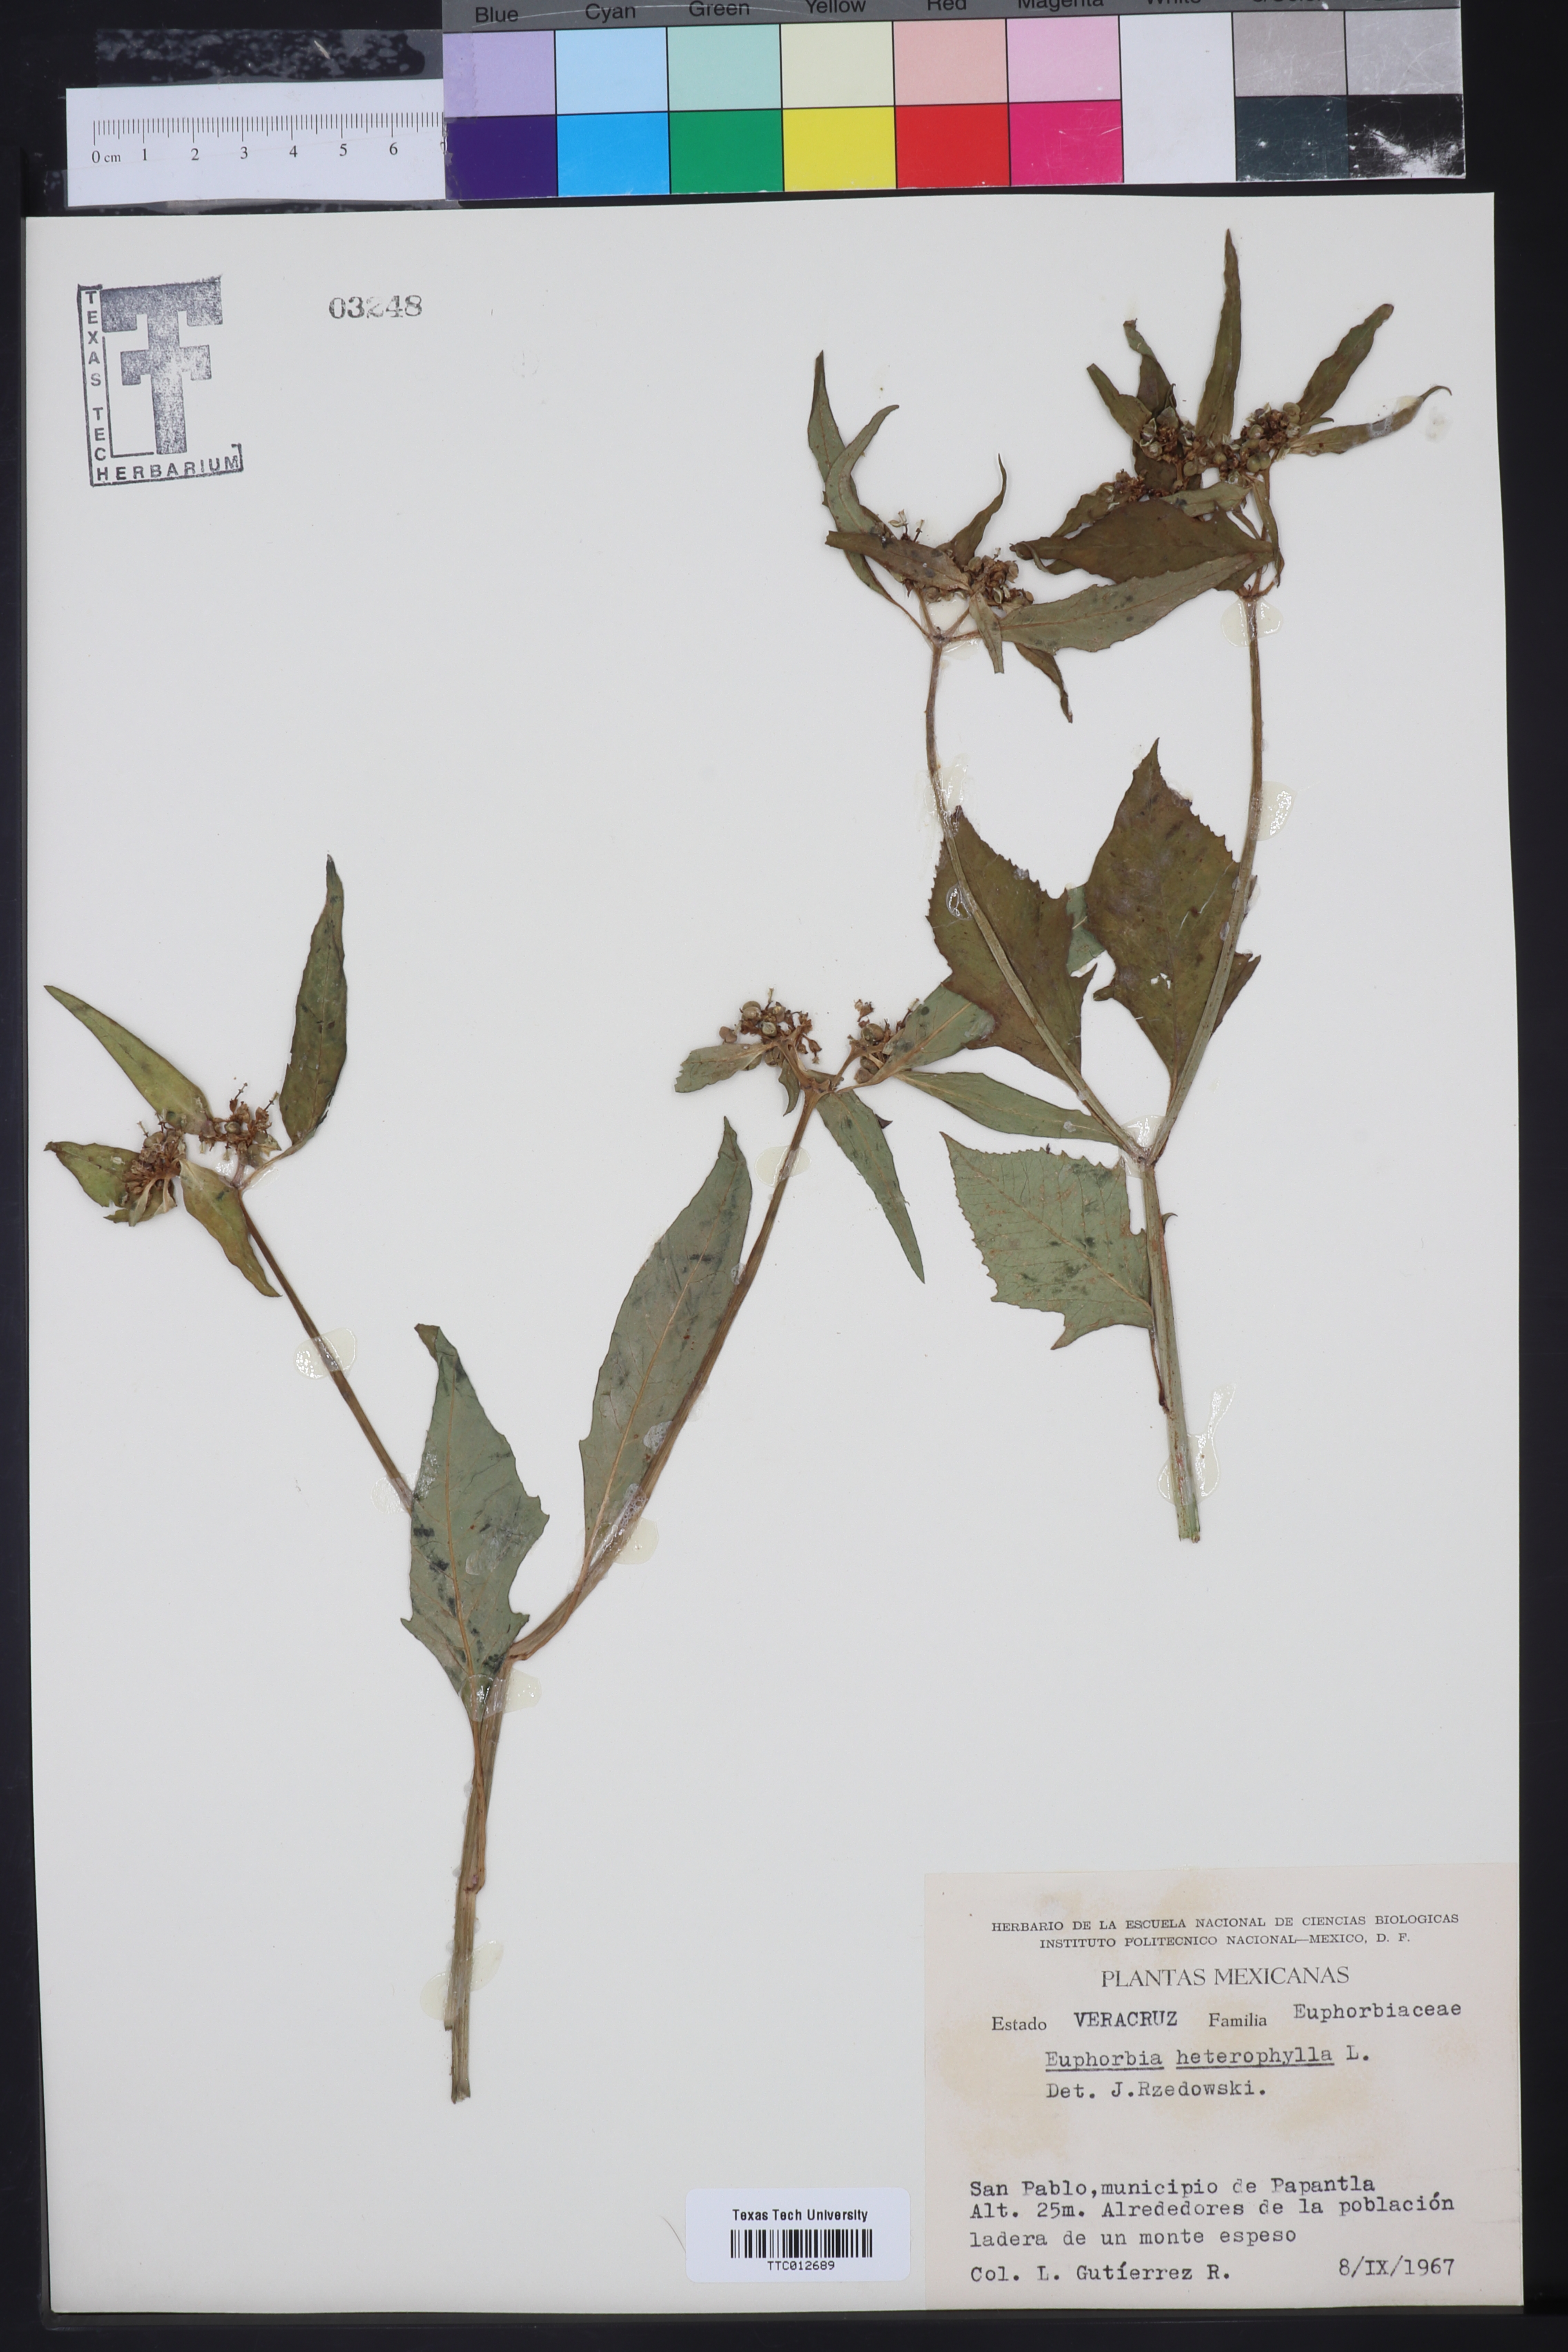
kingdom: Plantae
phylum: Tracheophyta
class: Magnoliopsida
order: Malpighiales
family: Euphorbiaceae
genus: Euphorbia
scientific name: Euphorbia heterophylla
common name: Mexican fireplant
